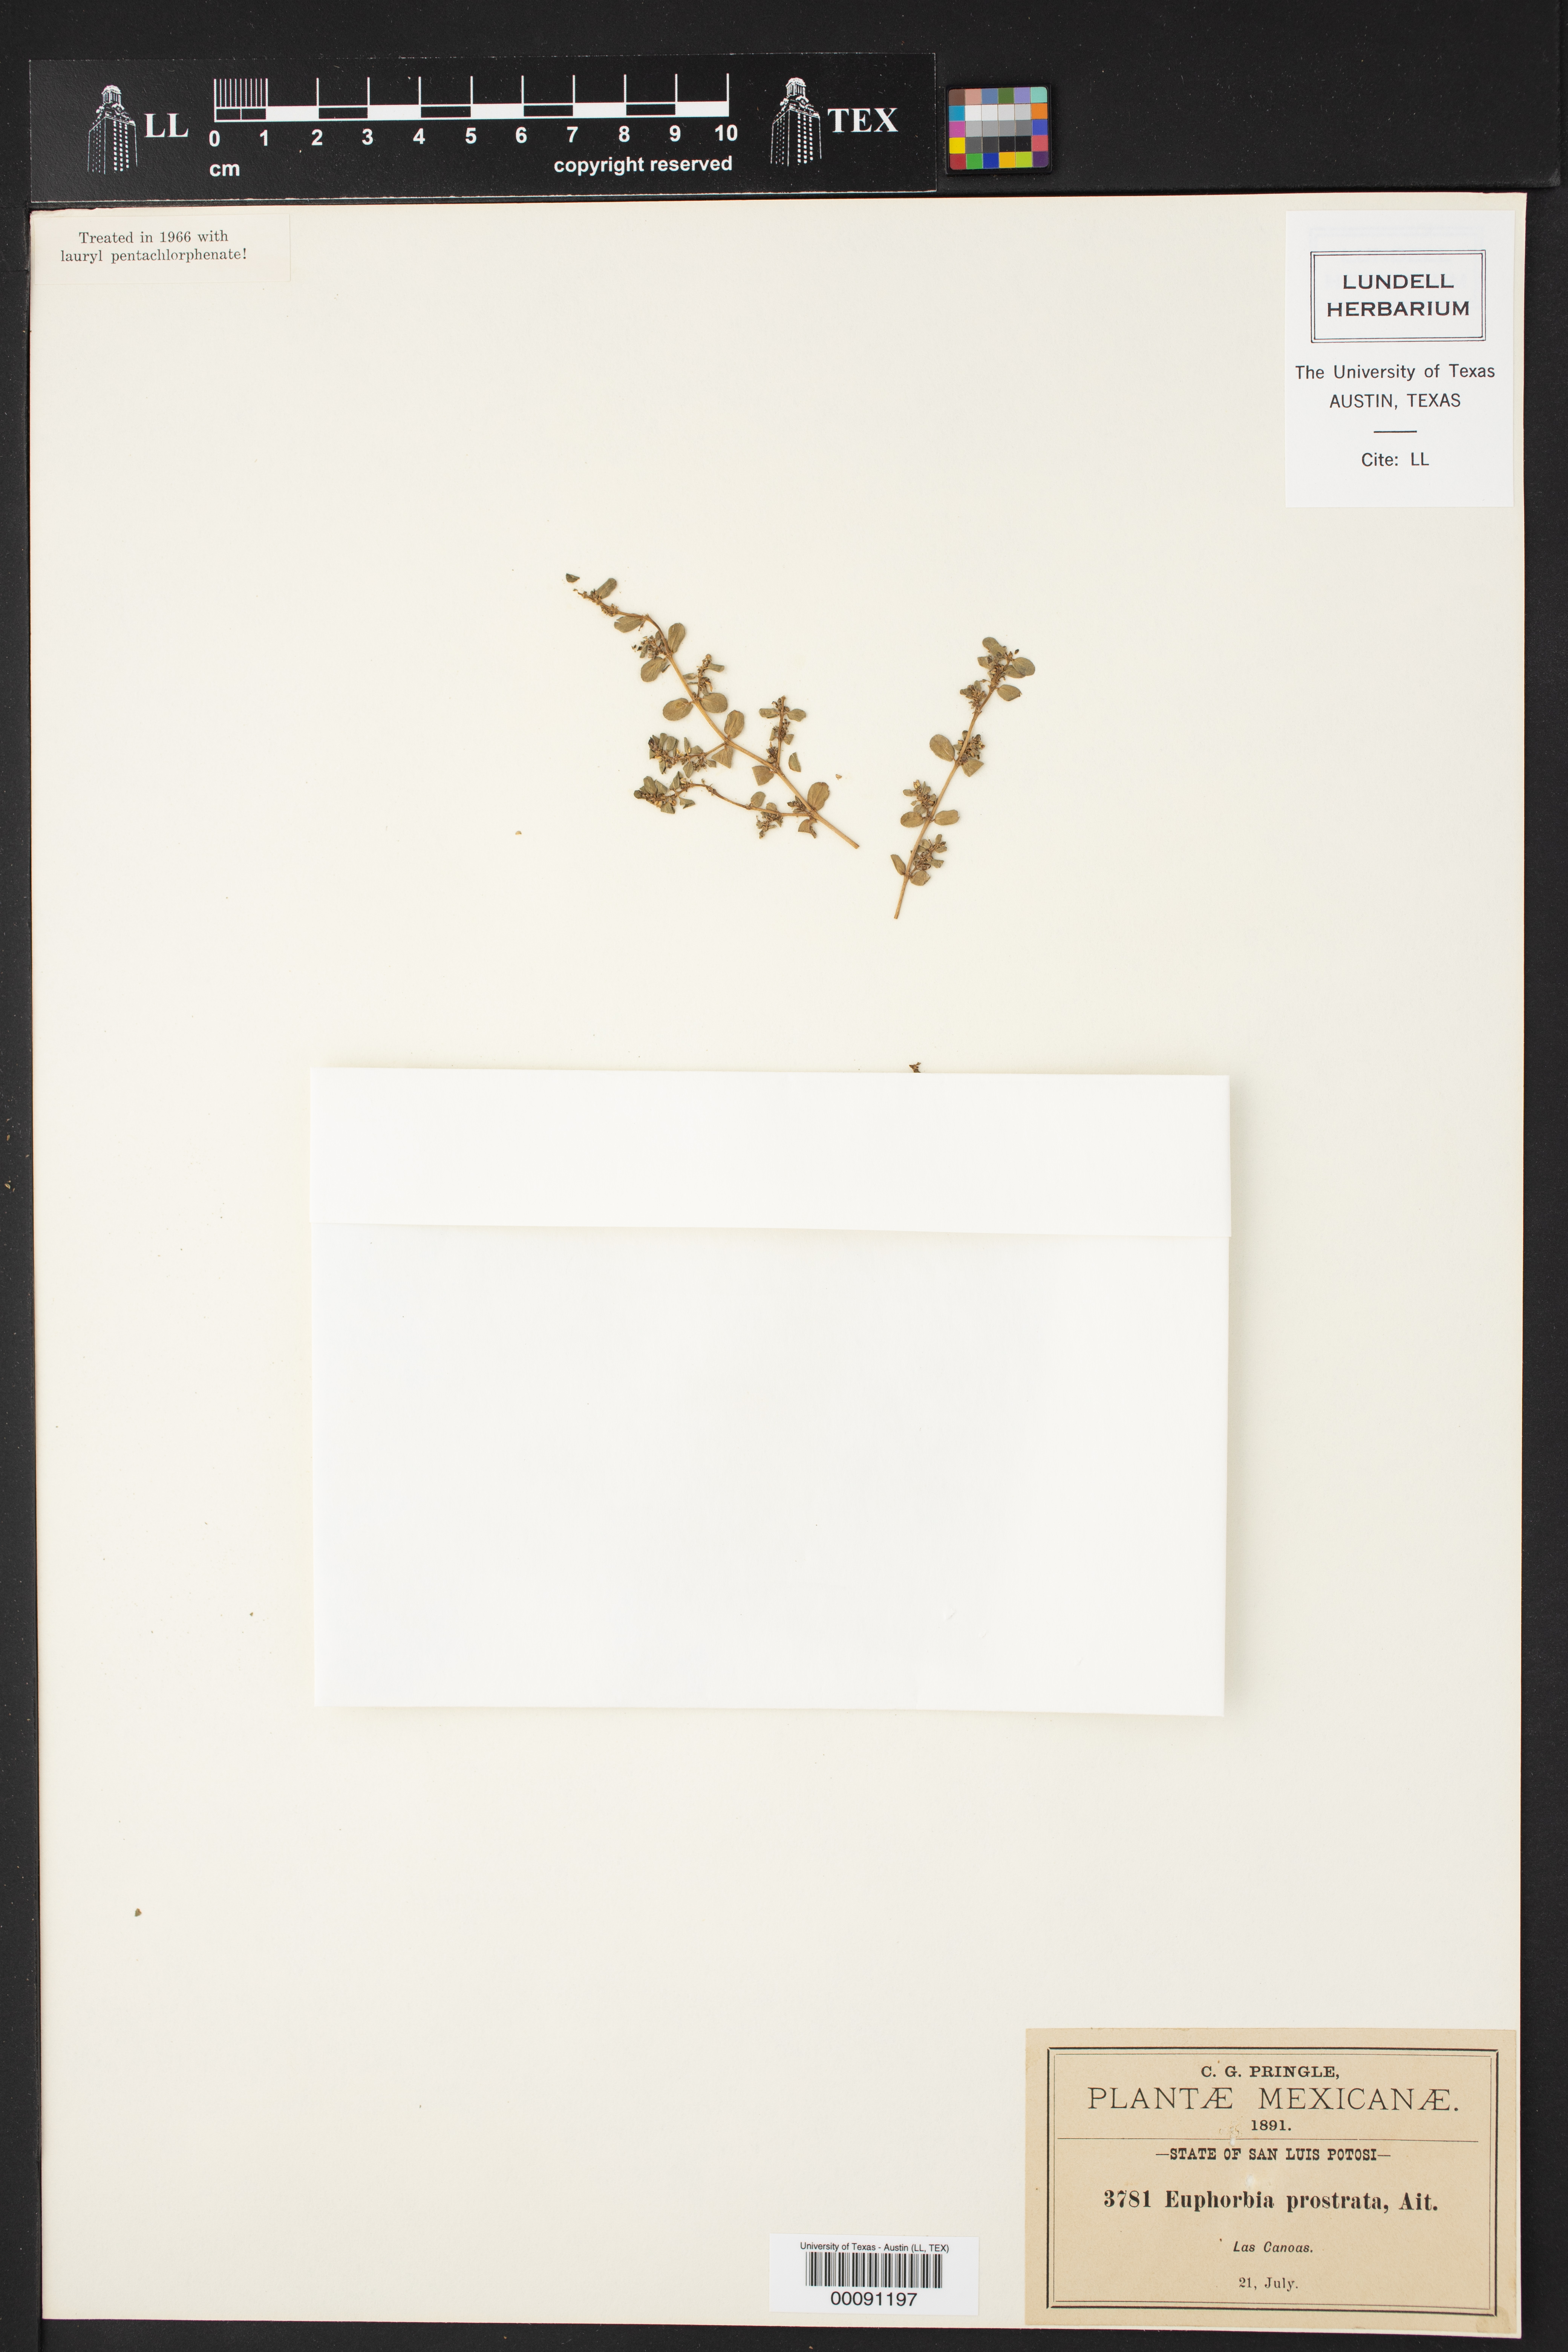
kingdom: Plantae
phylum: Tracheophyta
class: Magnoliopsida
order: Malpighiales
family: Euphorbiaceae
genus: Euphorbia
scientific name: Euphorbia prostrata
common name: Prostrate sandmat
